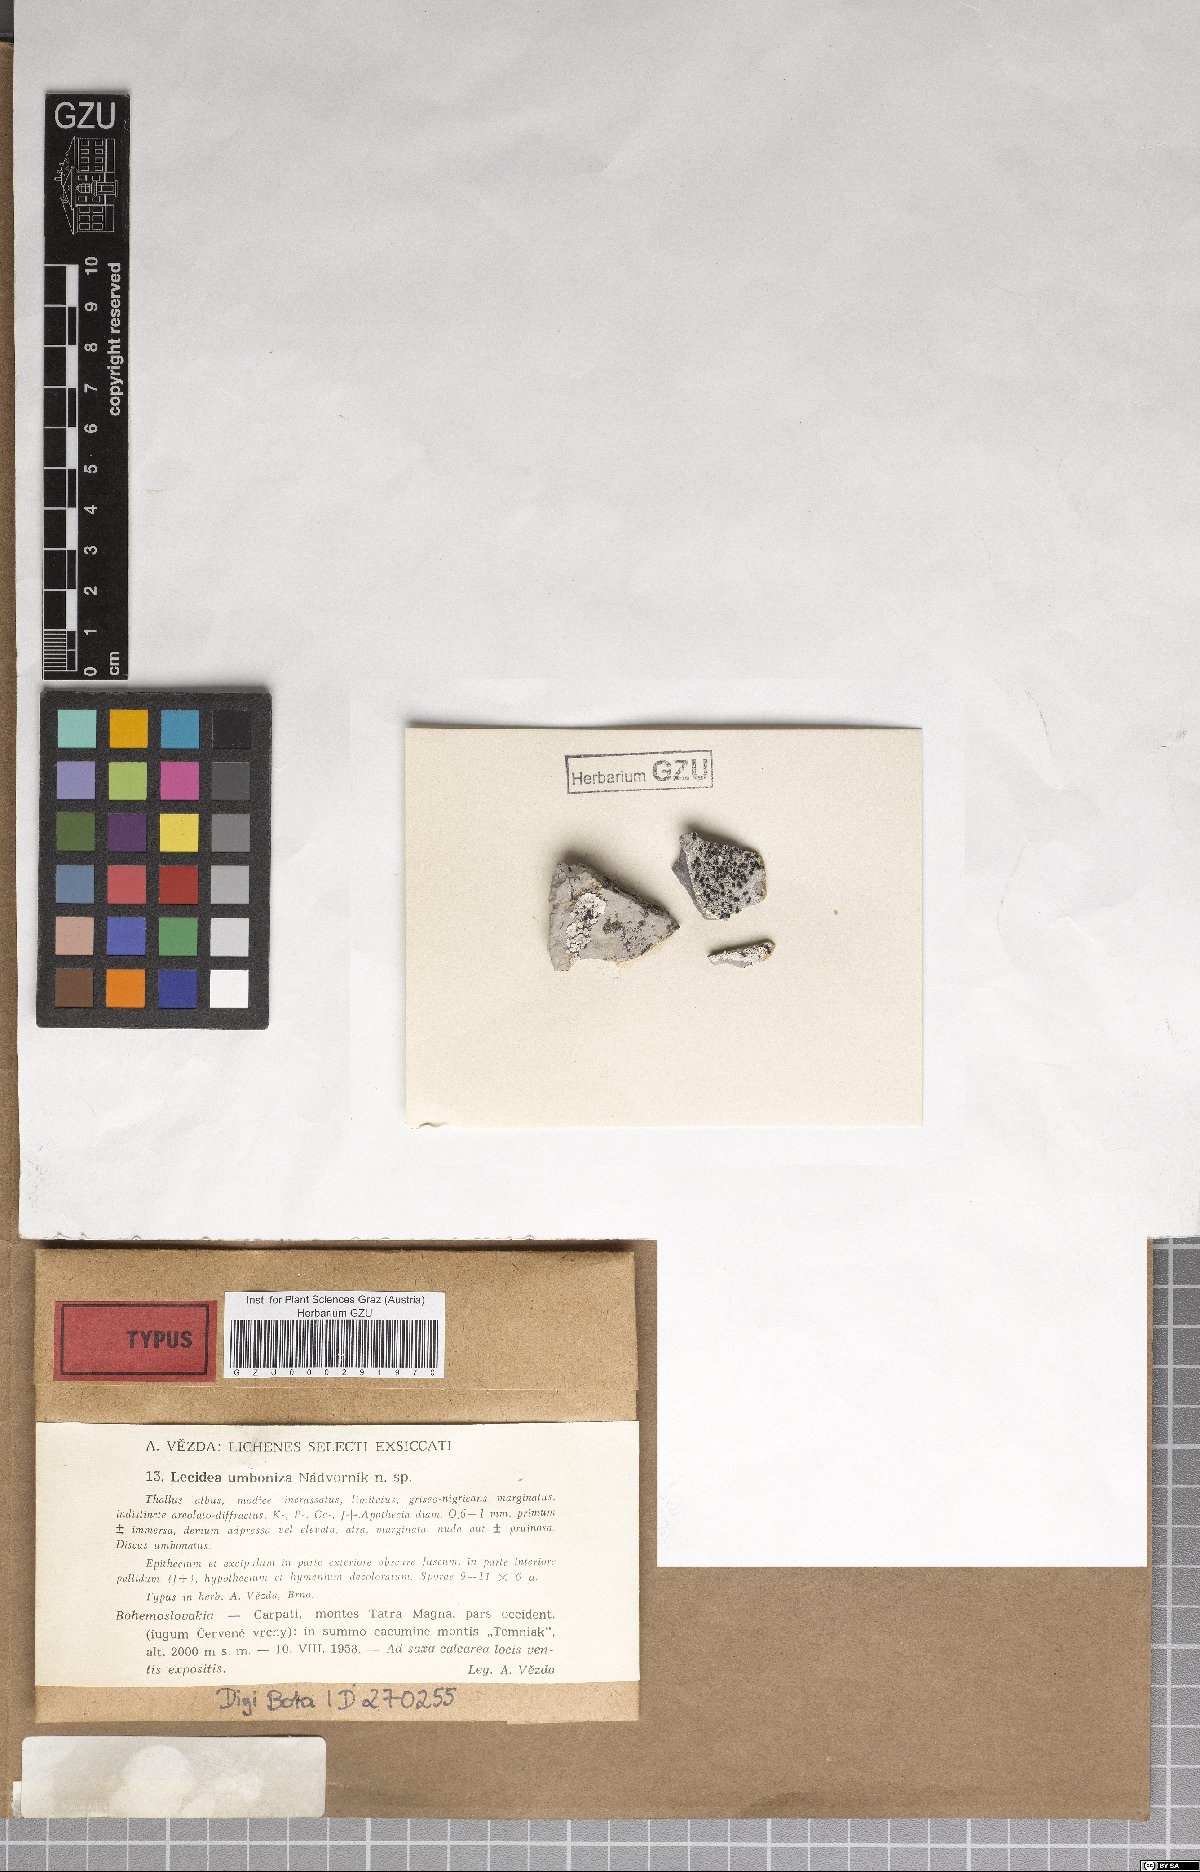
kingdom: Fungi
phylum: Ascomycota
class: Lecanoromycetes
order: Lecideales
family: Lecideaceae
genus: Lecidea
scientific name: Lecidea umbonata
